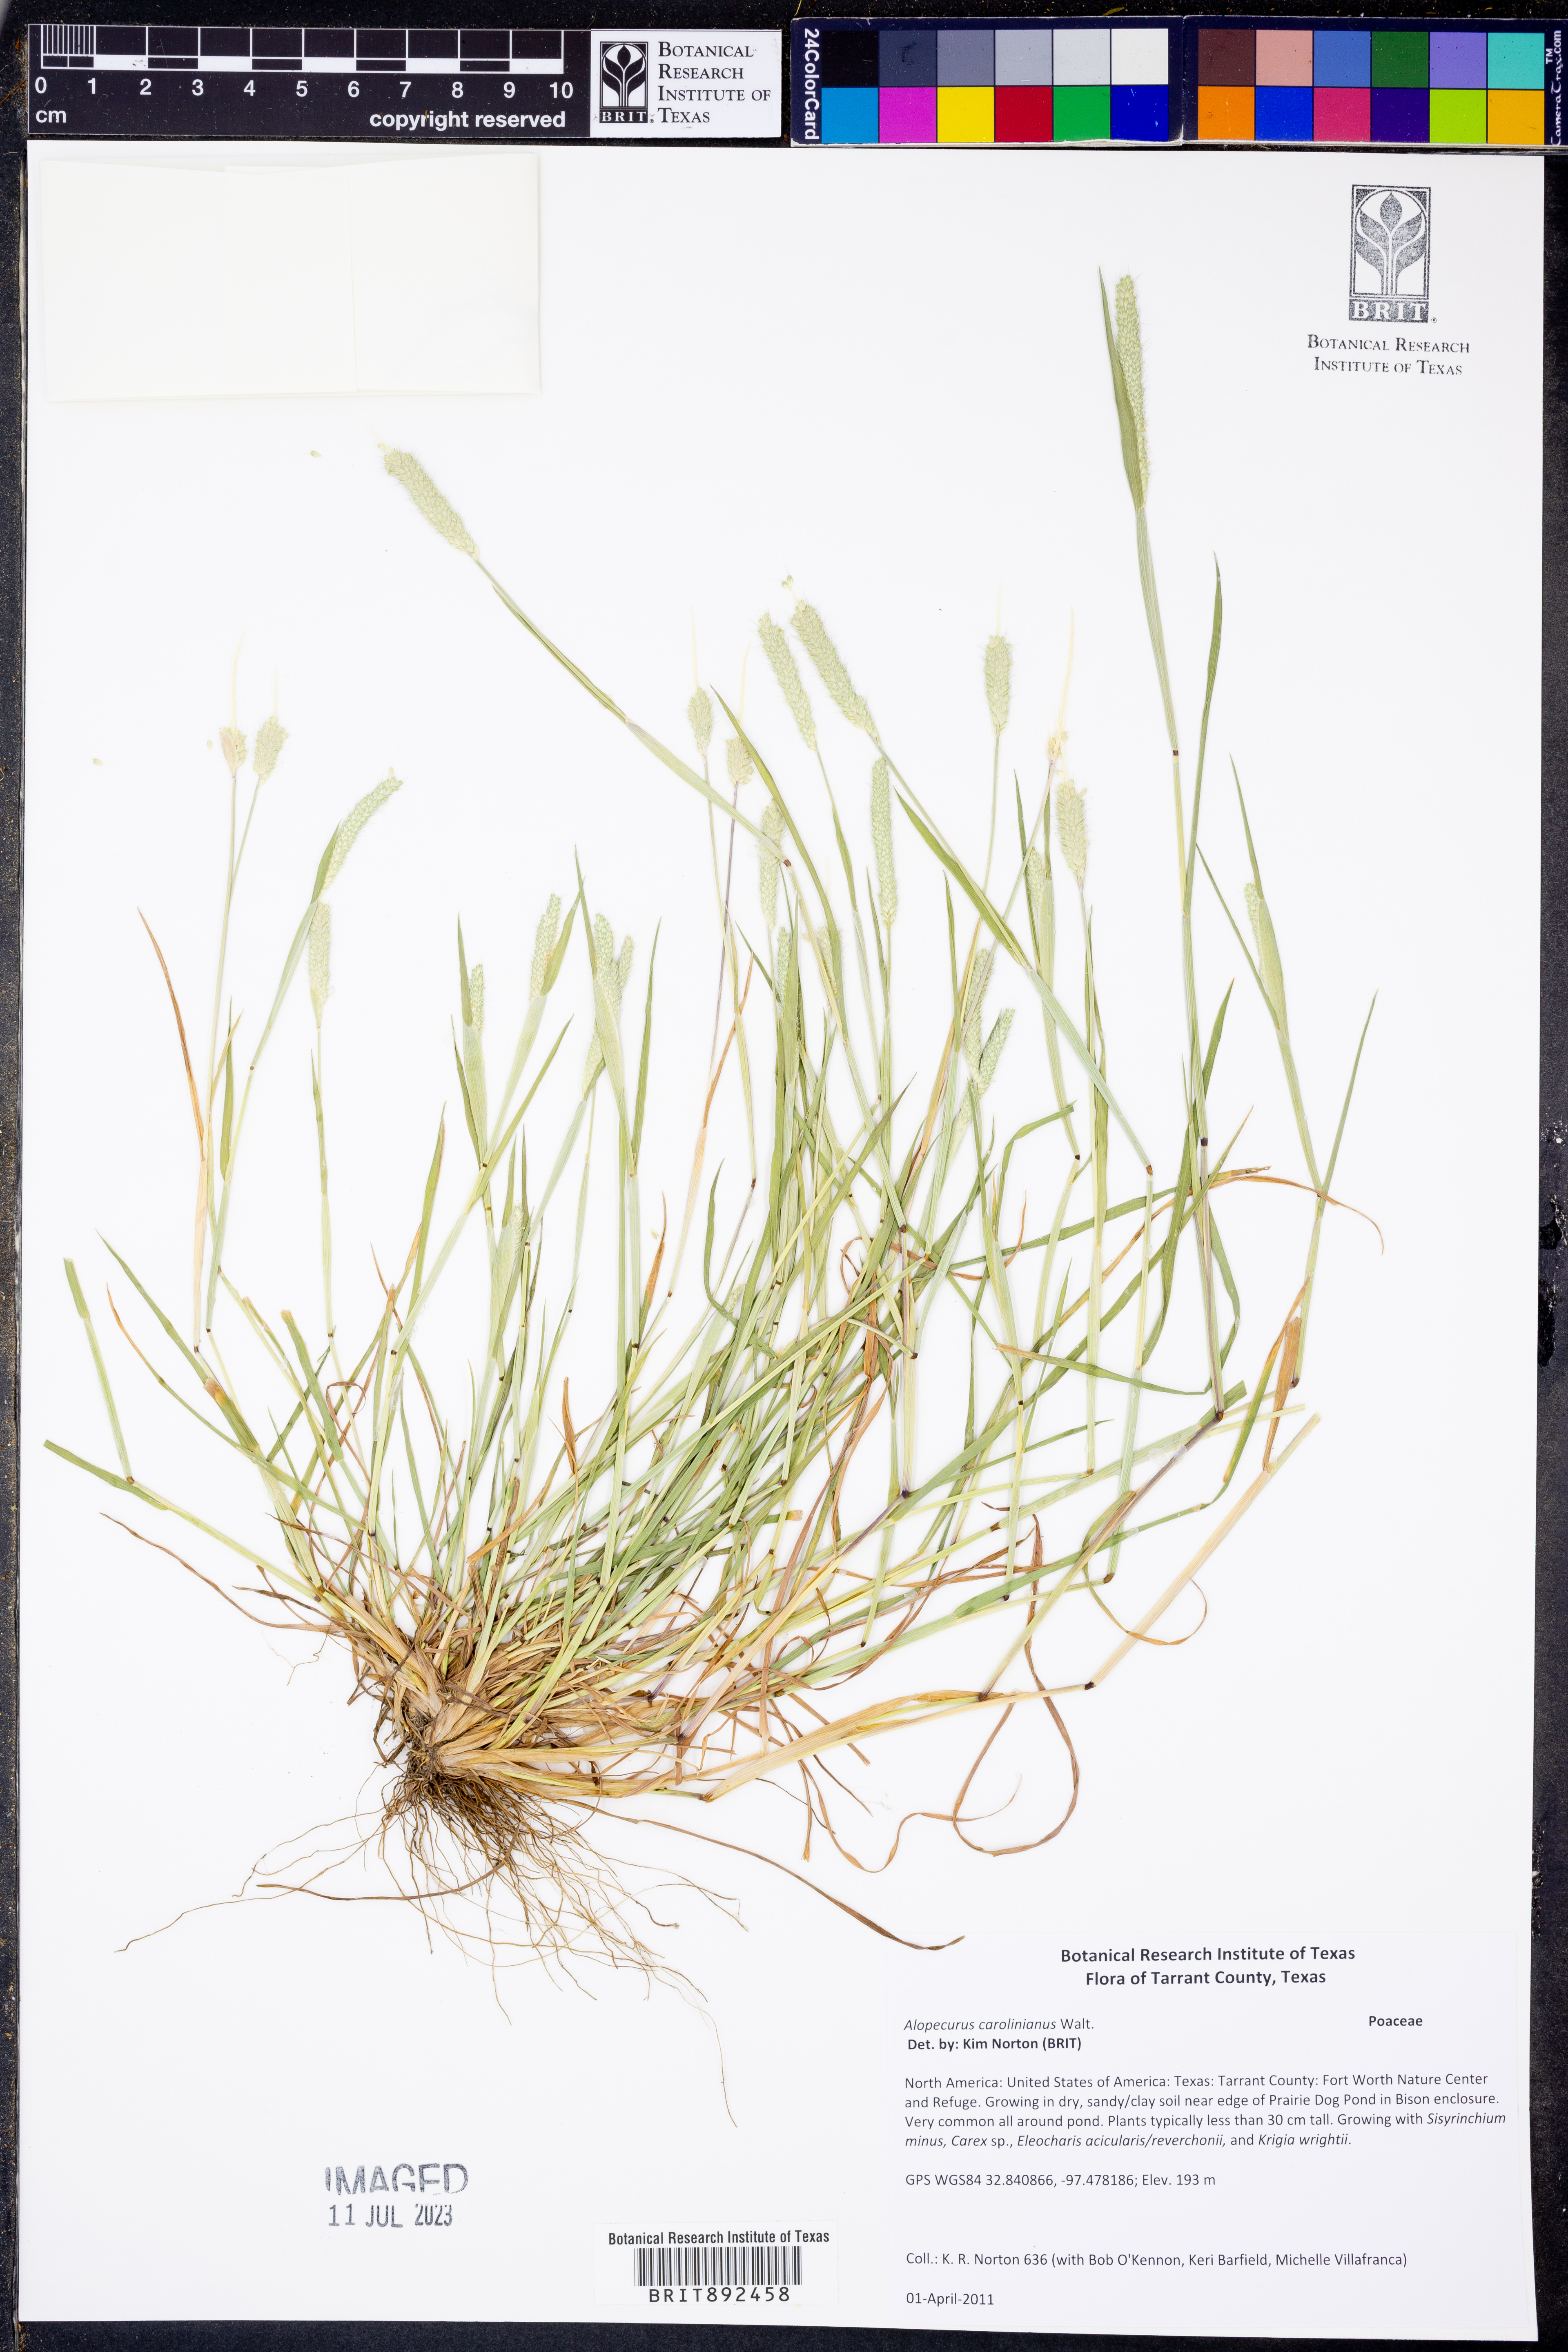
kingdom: Plantae
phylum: Tracheophyta
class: Liliopsida
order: Poales
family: Poaceae
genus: Alopecurus
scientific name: Alopecurus carolinianus
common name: Tufted foxtail
